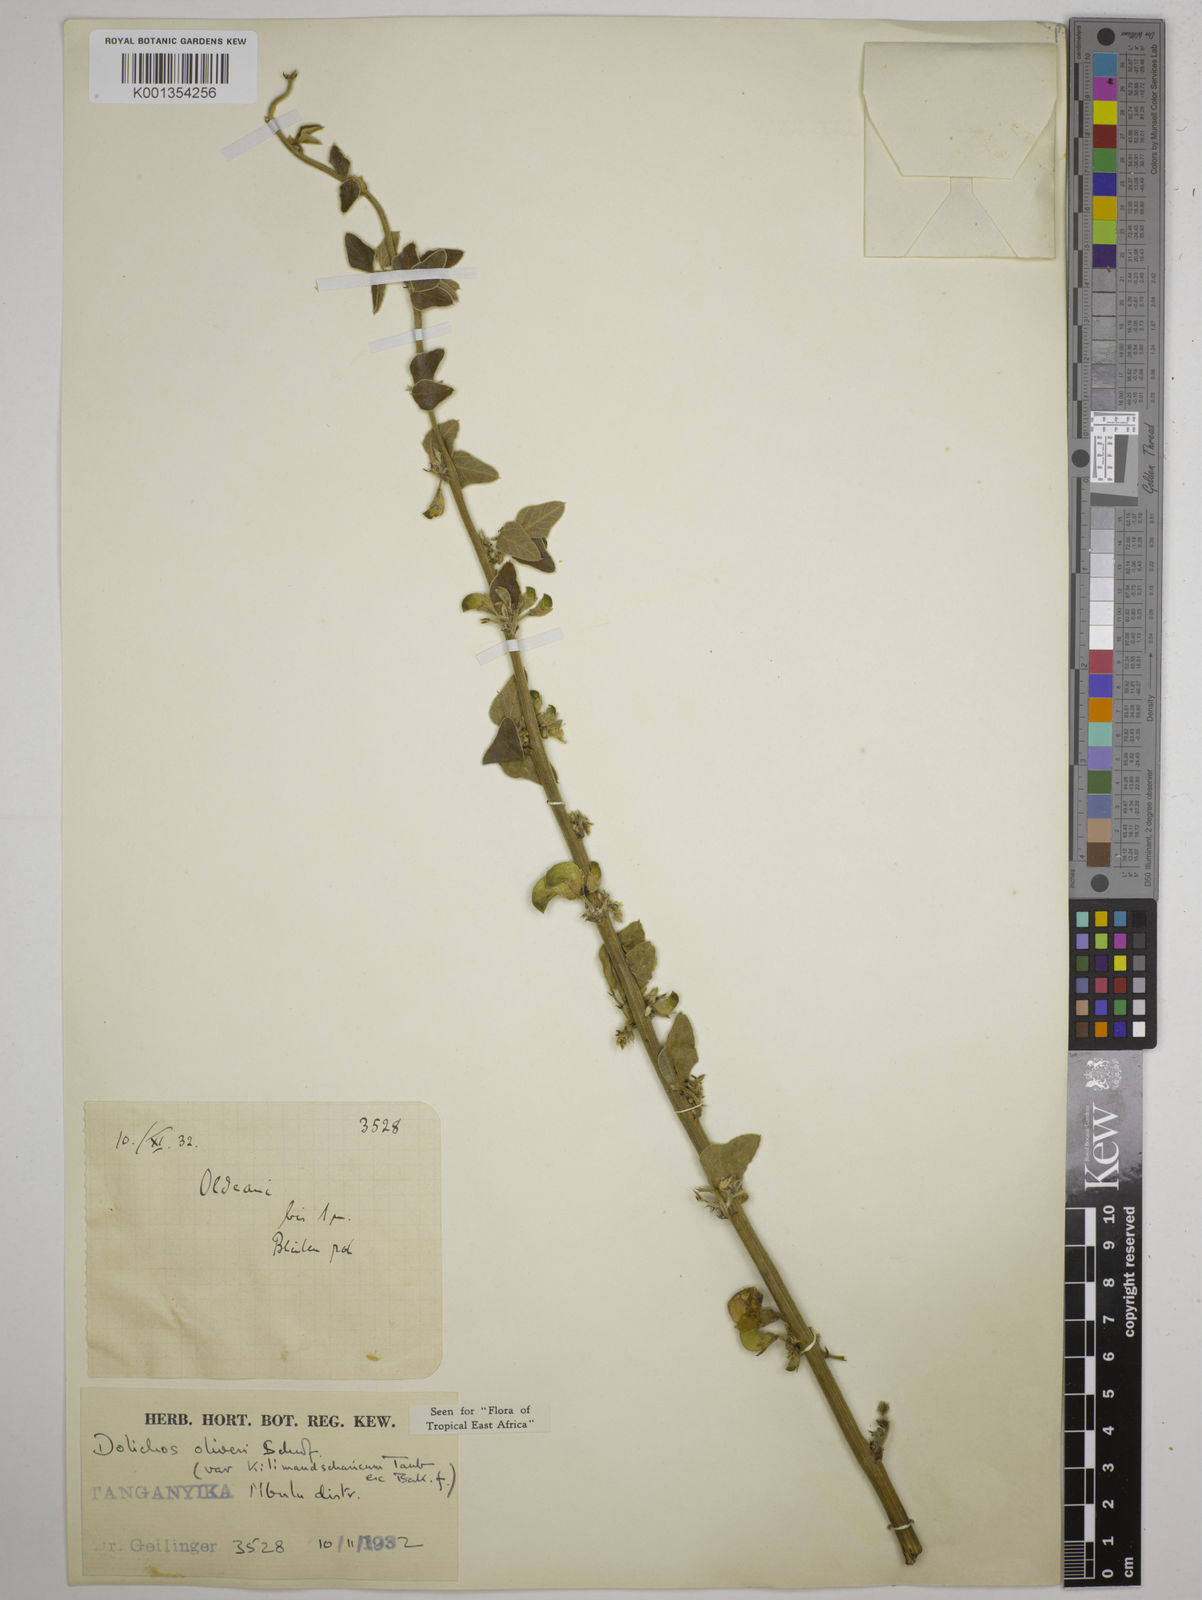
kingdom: Plantae
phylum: Tracheophyta
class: Magnoliopsida
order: Fabales
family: Fabaceae
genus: Dolichos
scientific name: Dolichos
